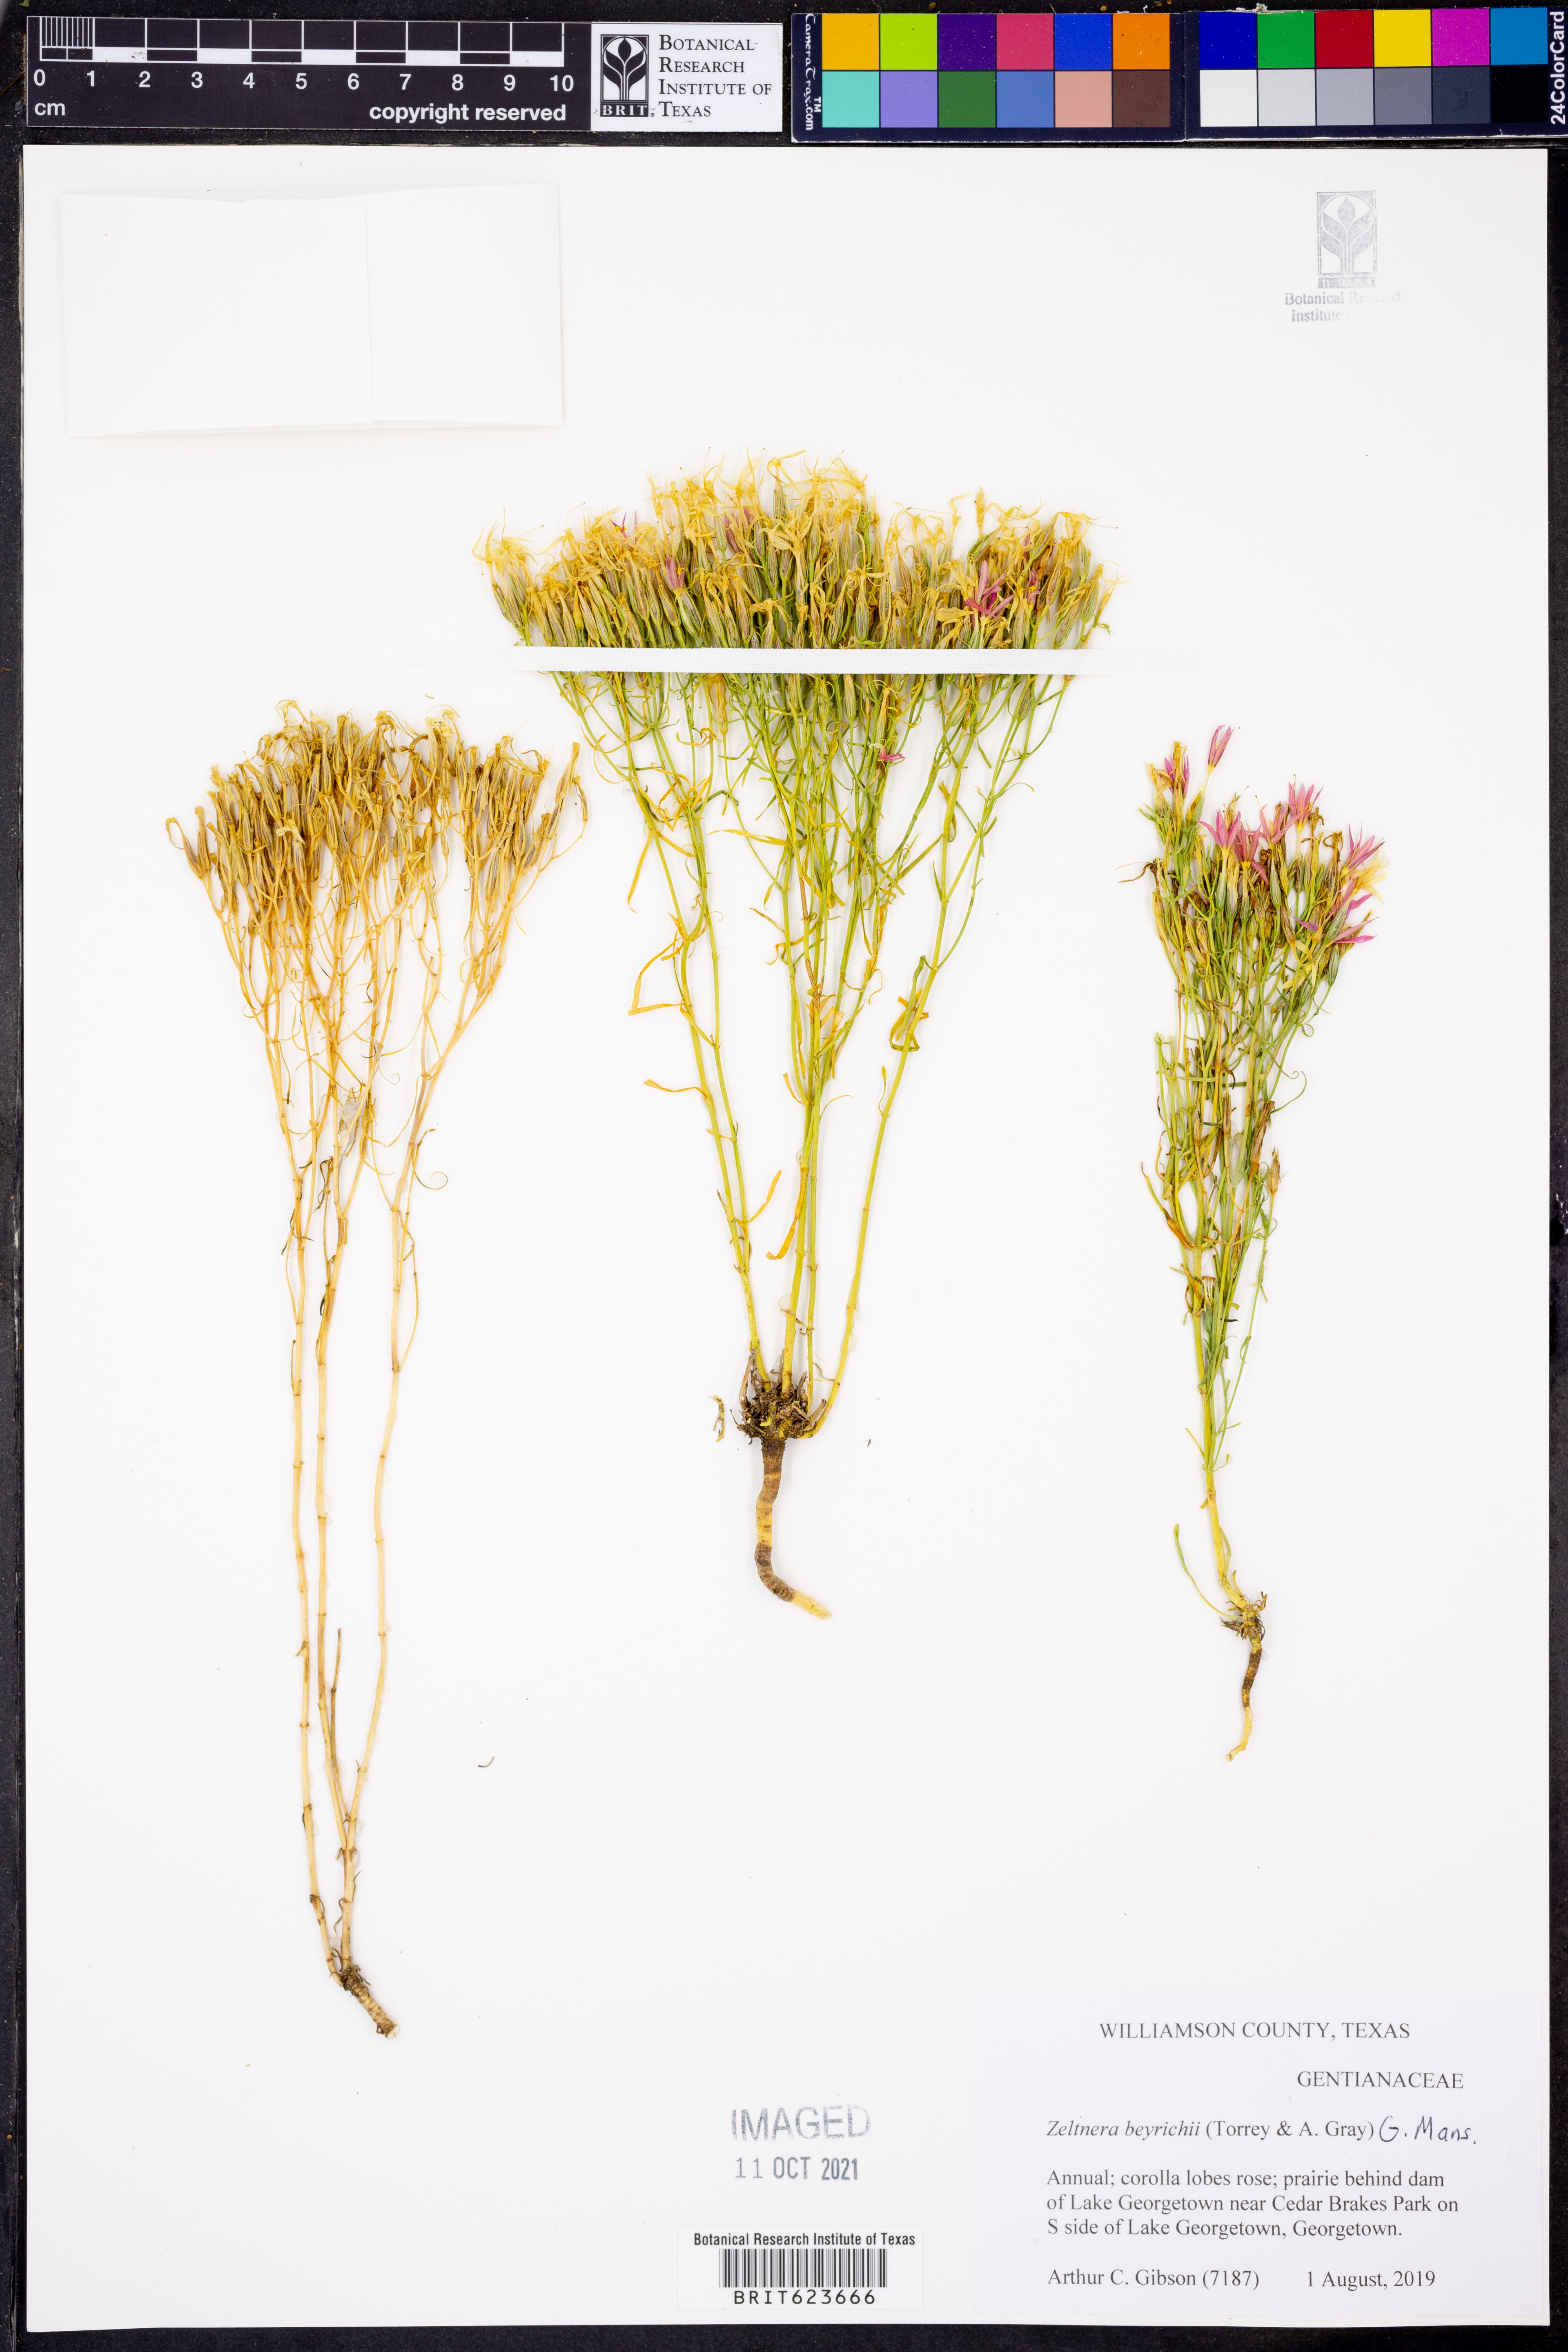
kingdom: Plantae
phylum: Tracheophyta
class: Magnoliopsida
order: Gentianales
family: Gentianaceae
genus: Zeltnera
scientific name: Zeltnera beyrichii
